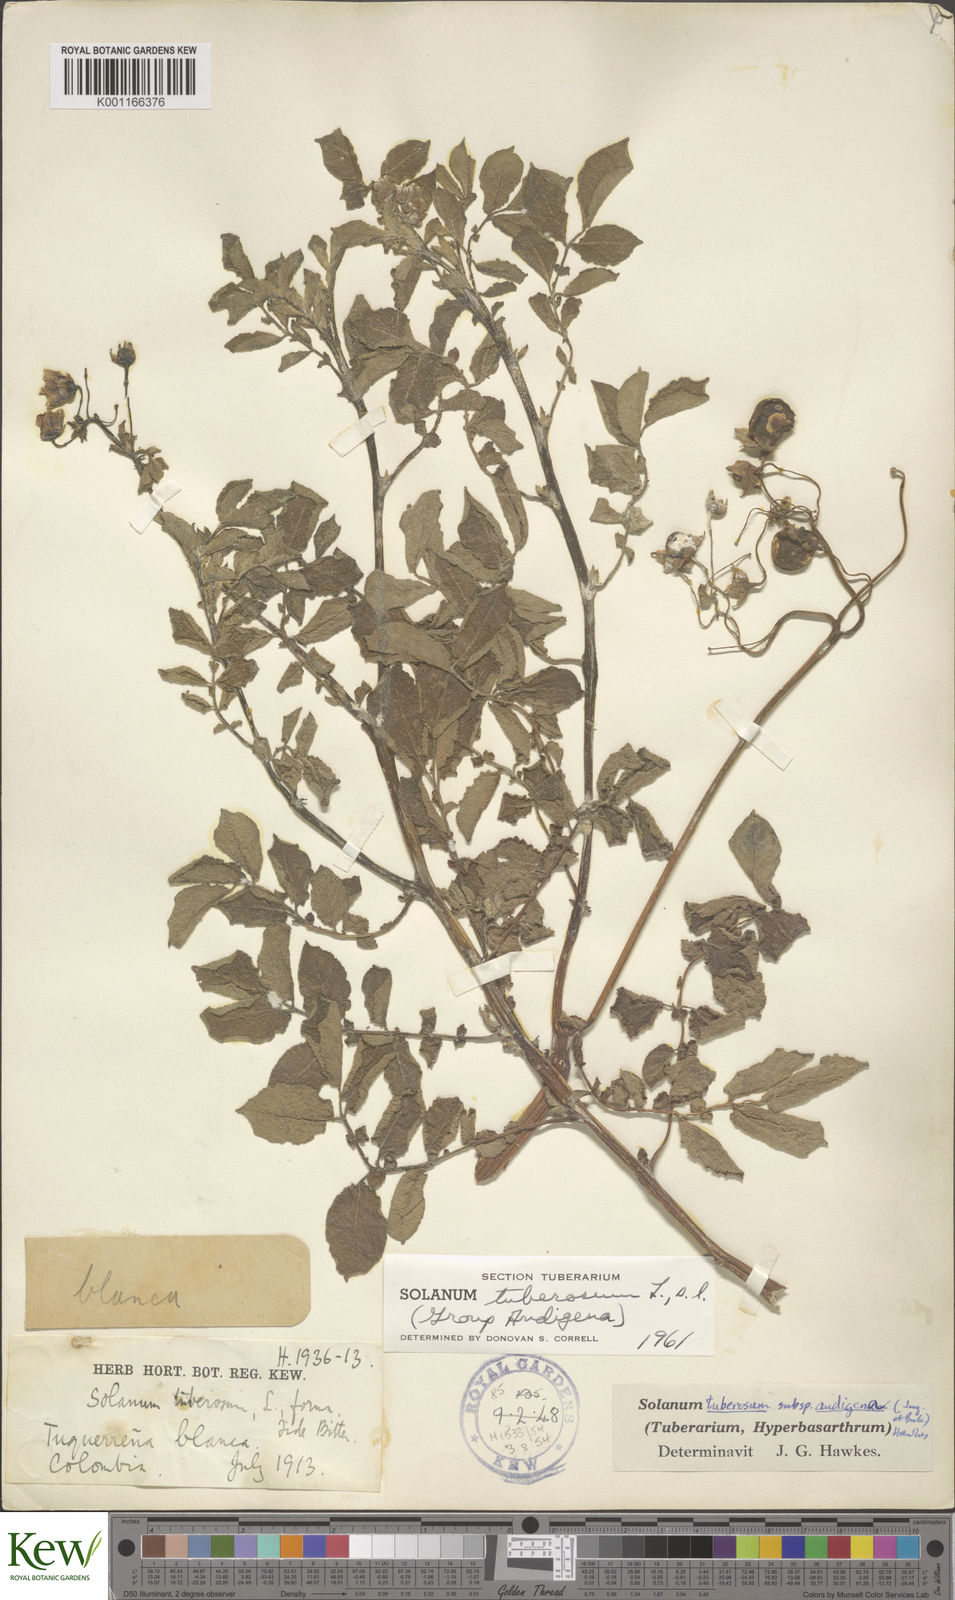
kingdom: Plantae
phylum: Tracheophyta
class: Magnoliopsida
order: Solanales
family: Solanaceae
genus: Solanum
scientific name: Solanum tuberosum
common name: Potato
